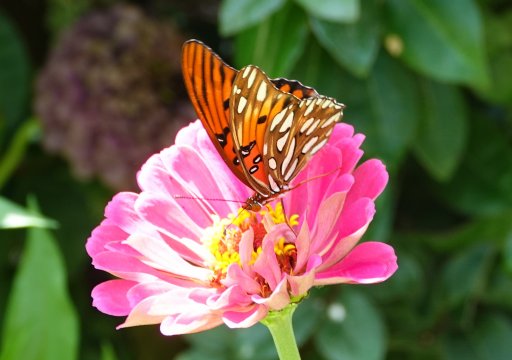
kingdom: Animalia
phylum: Arthropoda
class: Insecta
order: Lepidoptera
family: Nymphalidae
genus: Dione
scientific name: Dione vanillae
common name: Gulf Fritillary
